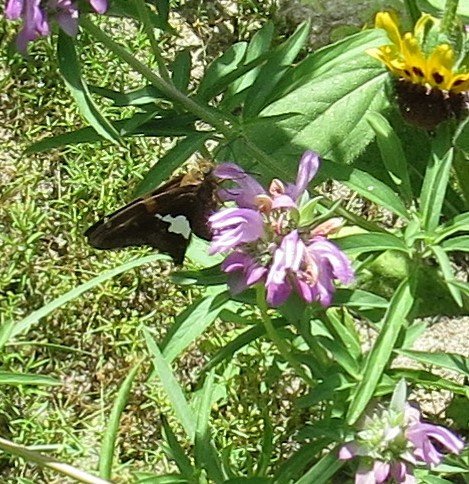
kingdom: Animalia
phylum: Arthropoda
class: Insecta
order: Lepidoptera
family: Hesperiidae
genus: Epargyreus
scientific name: Epargyreus clarus
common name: Silver-spotted Skipper
